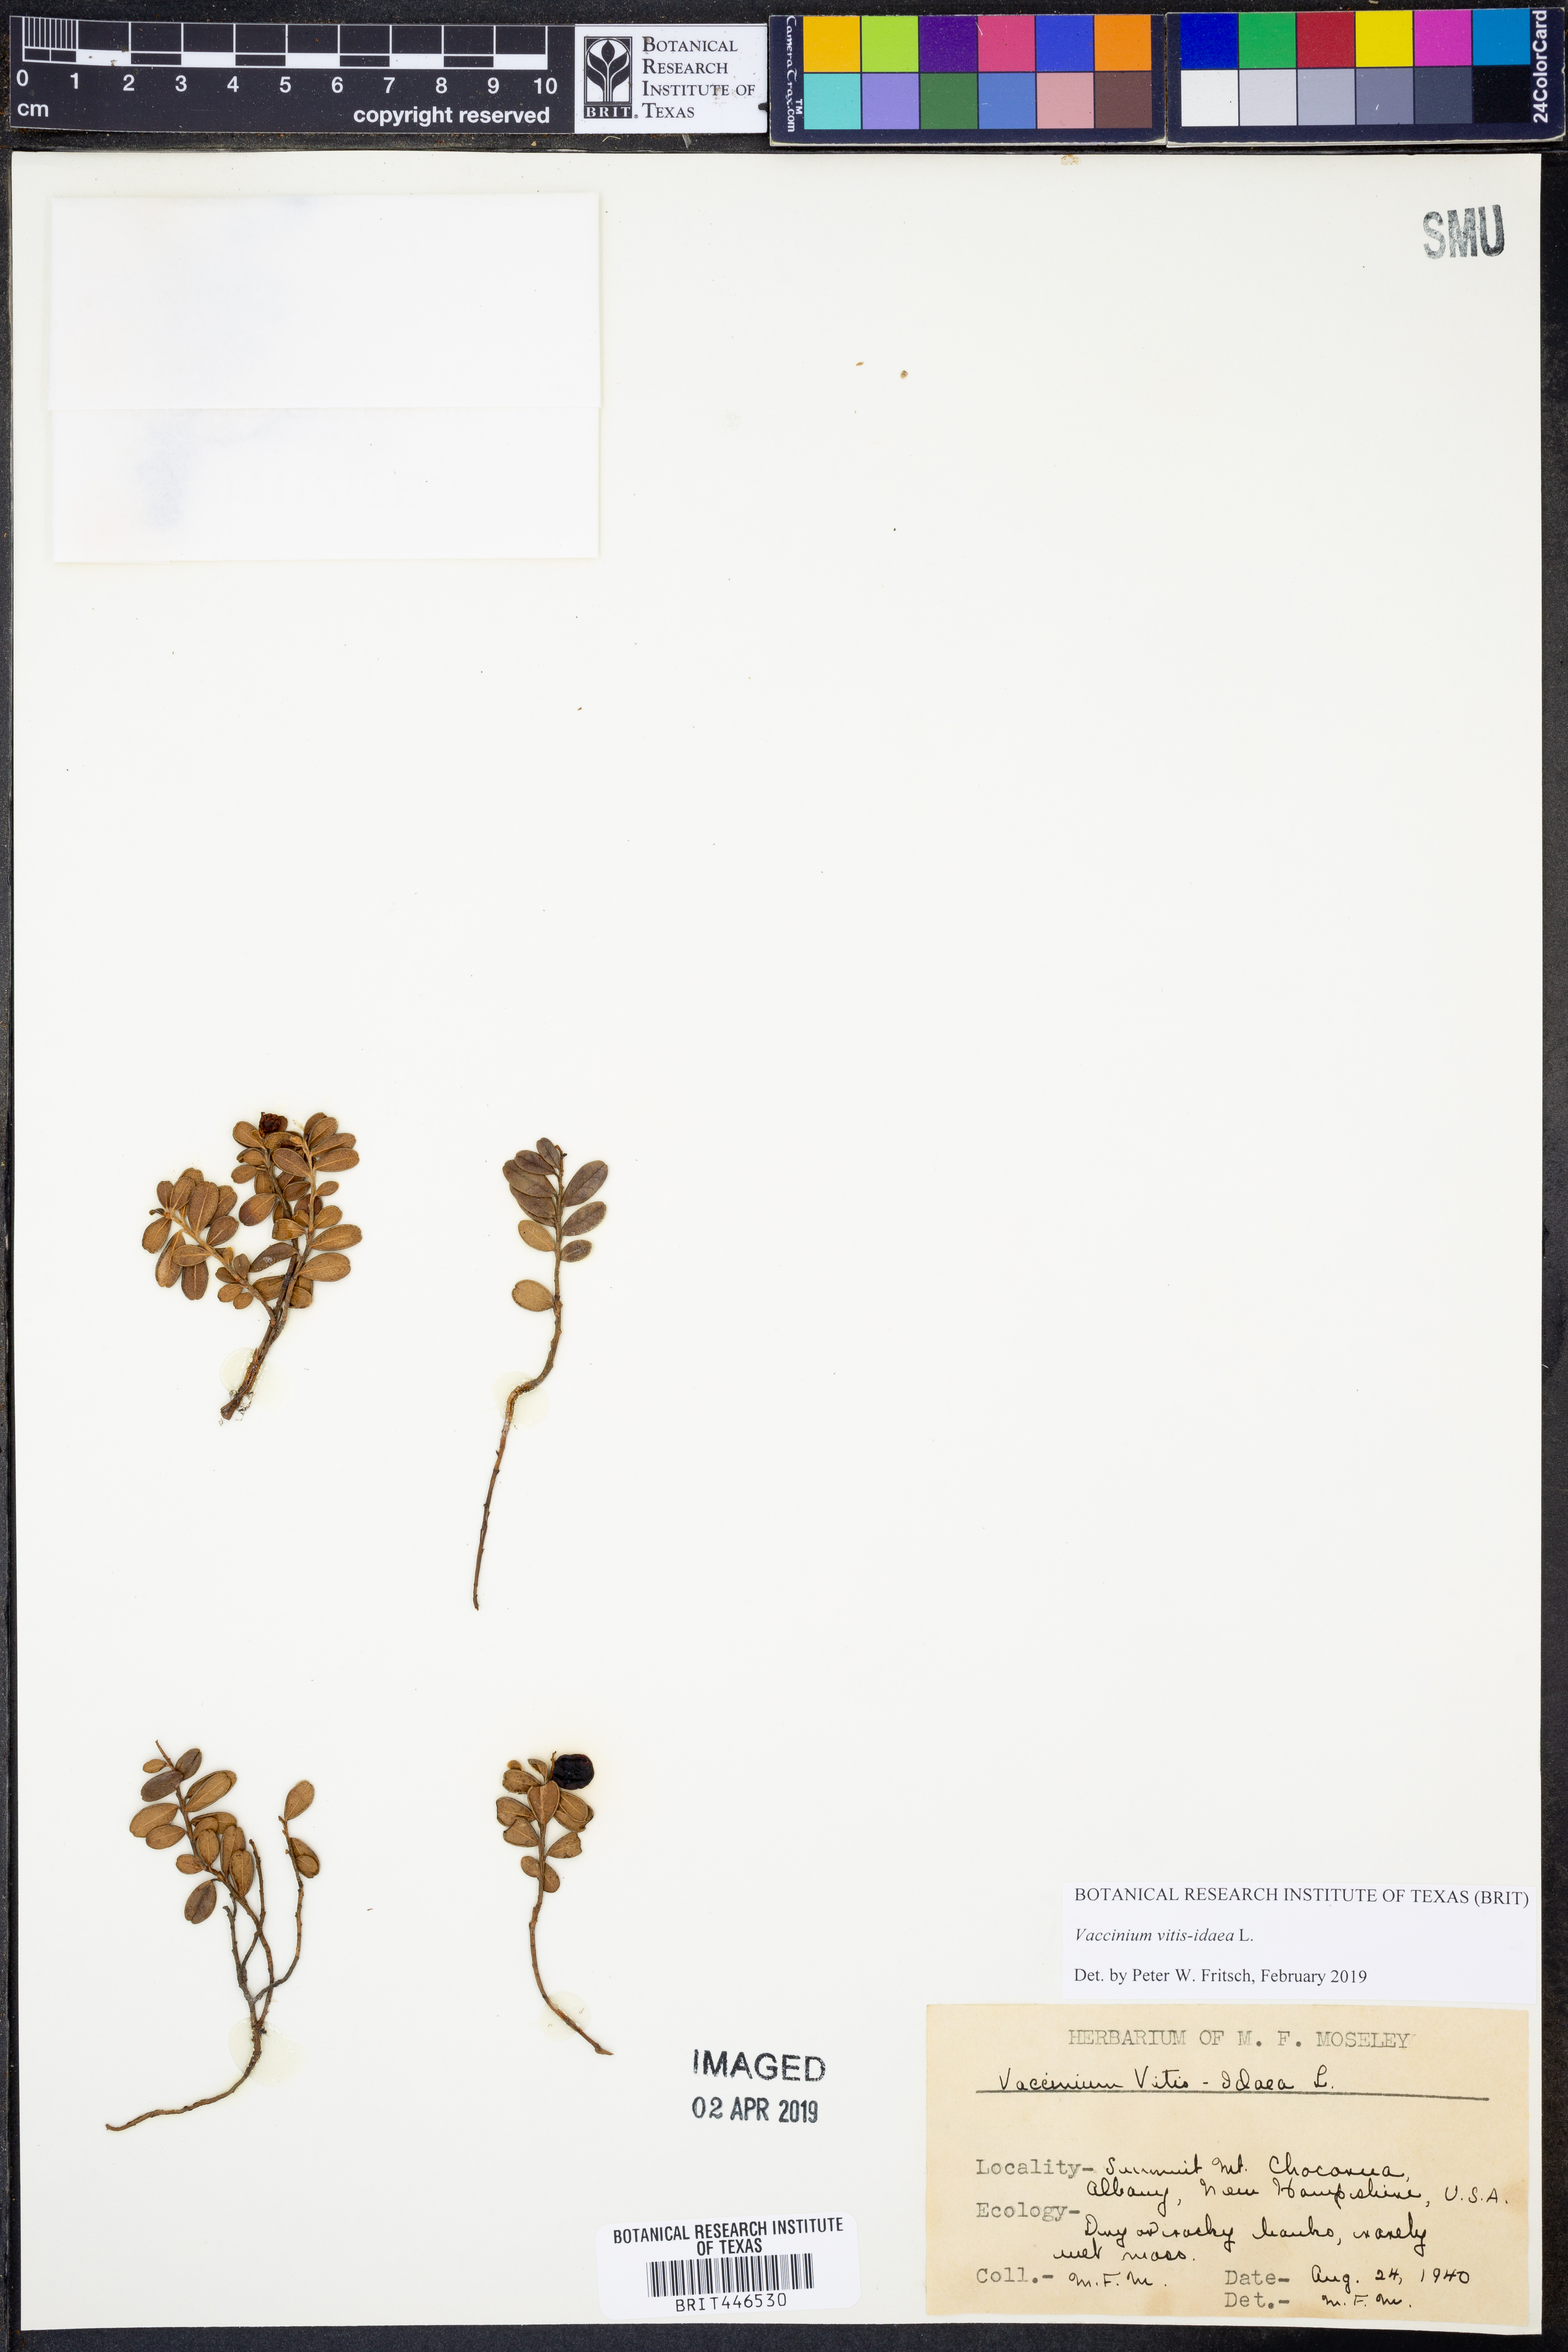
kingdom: Plantae
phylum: Tracheophyta
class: Magnoliopsida
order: Ericales
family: Ericaceae
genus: Vaccinium
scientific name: Vaccinium vitis-idaea
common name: Cowberry
